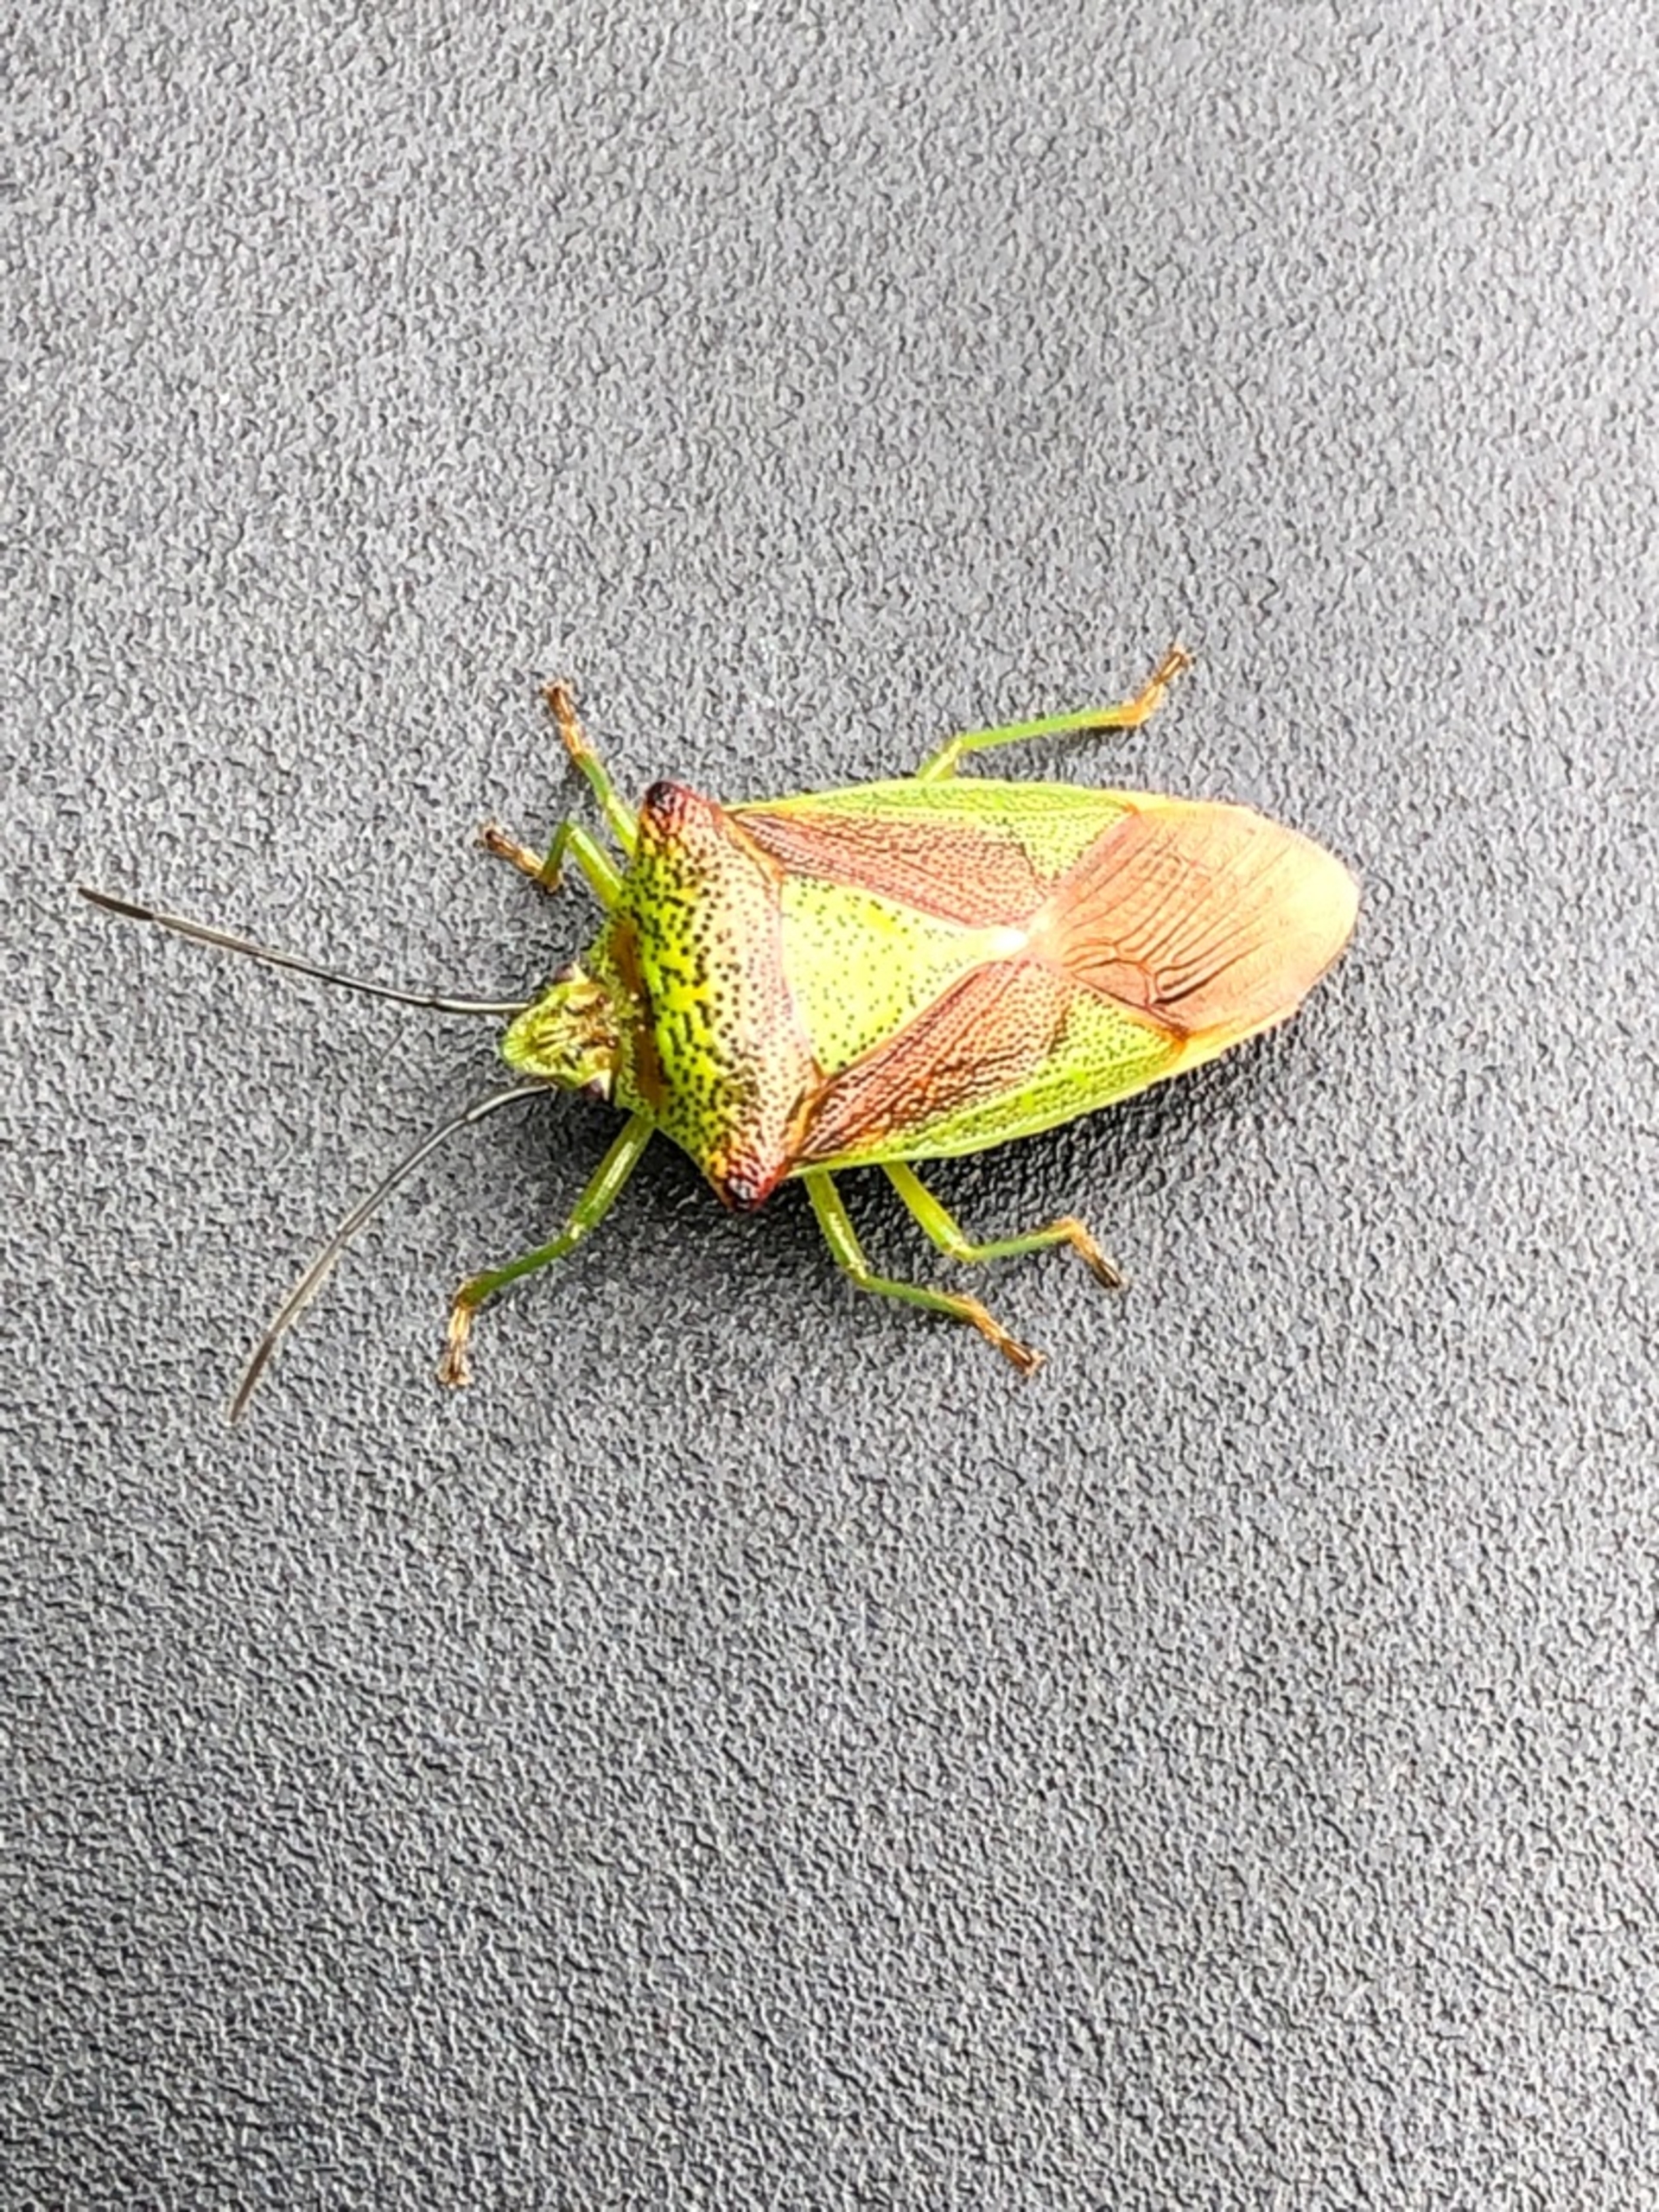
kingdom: Animalia
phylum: Arthropoda
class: Insecta
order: Hemiptera
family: Acanthosomatidae
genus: Acanthosoma
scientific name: Acanthosoma haemorrhoidale
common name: Stor løvtæge
